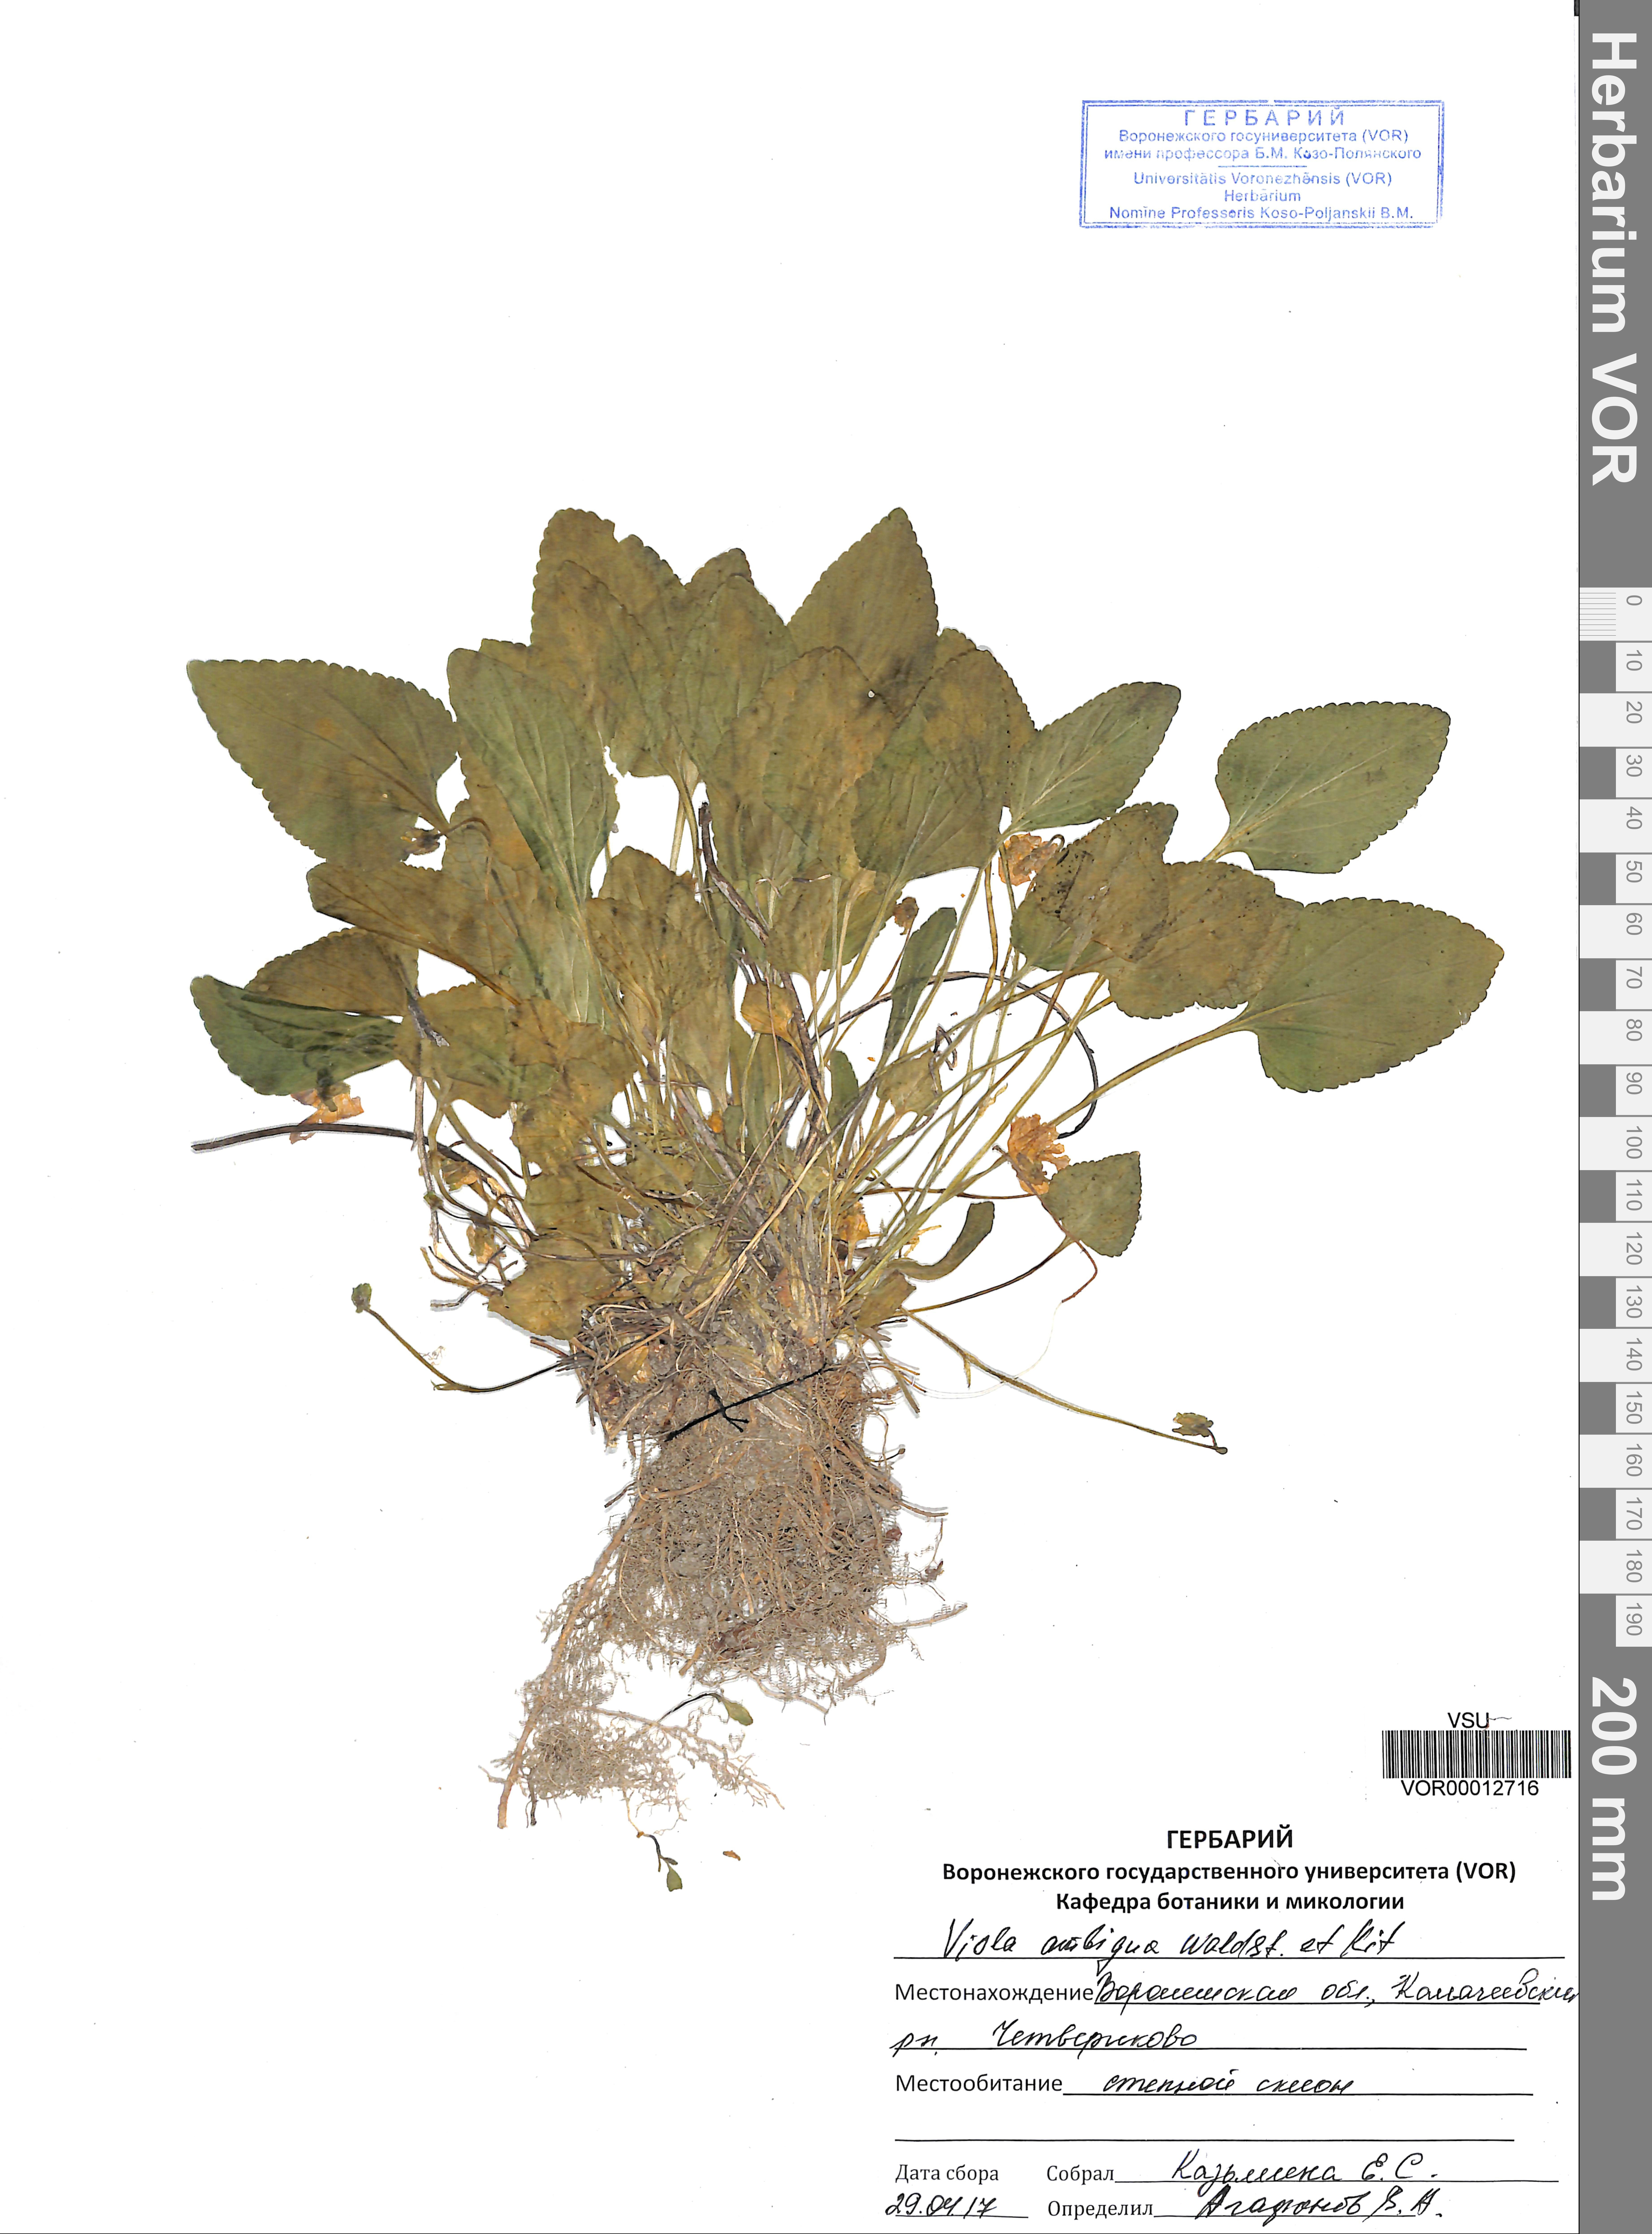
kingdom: Plantae
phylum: Tracheophyta
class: Magnoliopsida
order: Malpighiales
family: Violaceae
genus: Viola
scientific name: Viola ambigua
